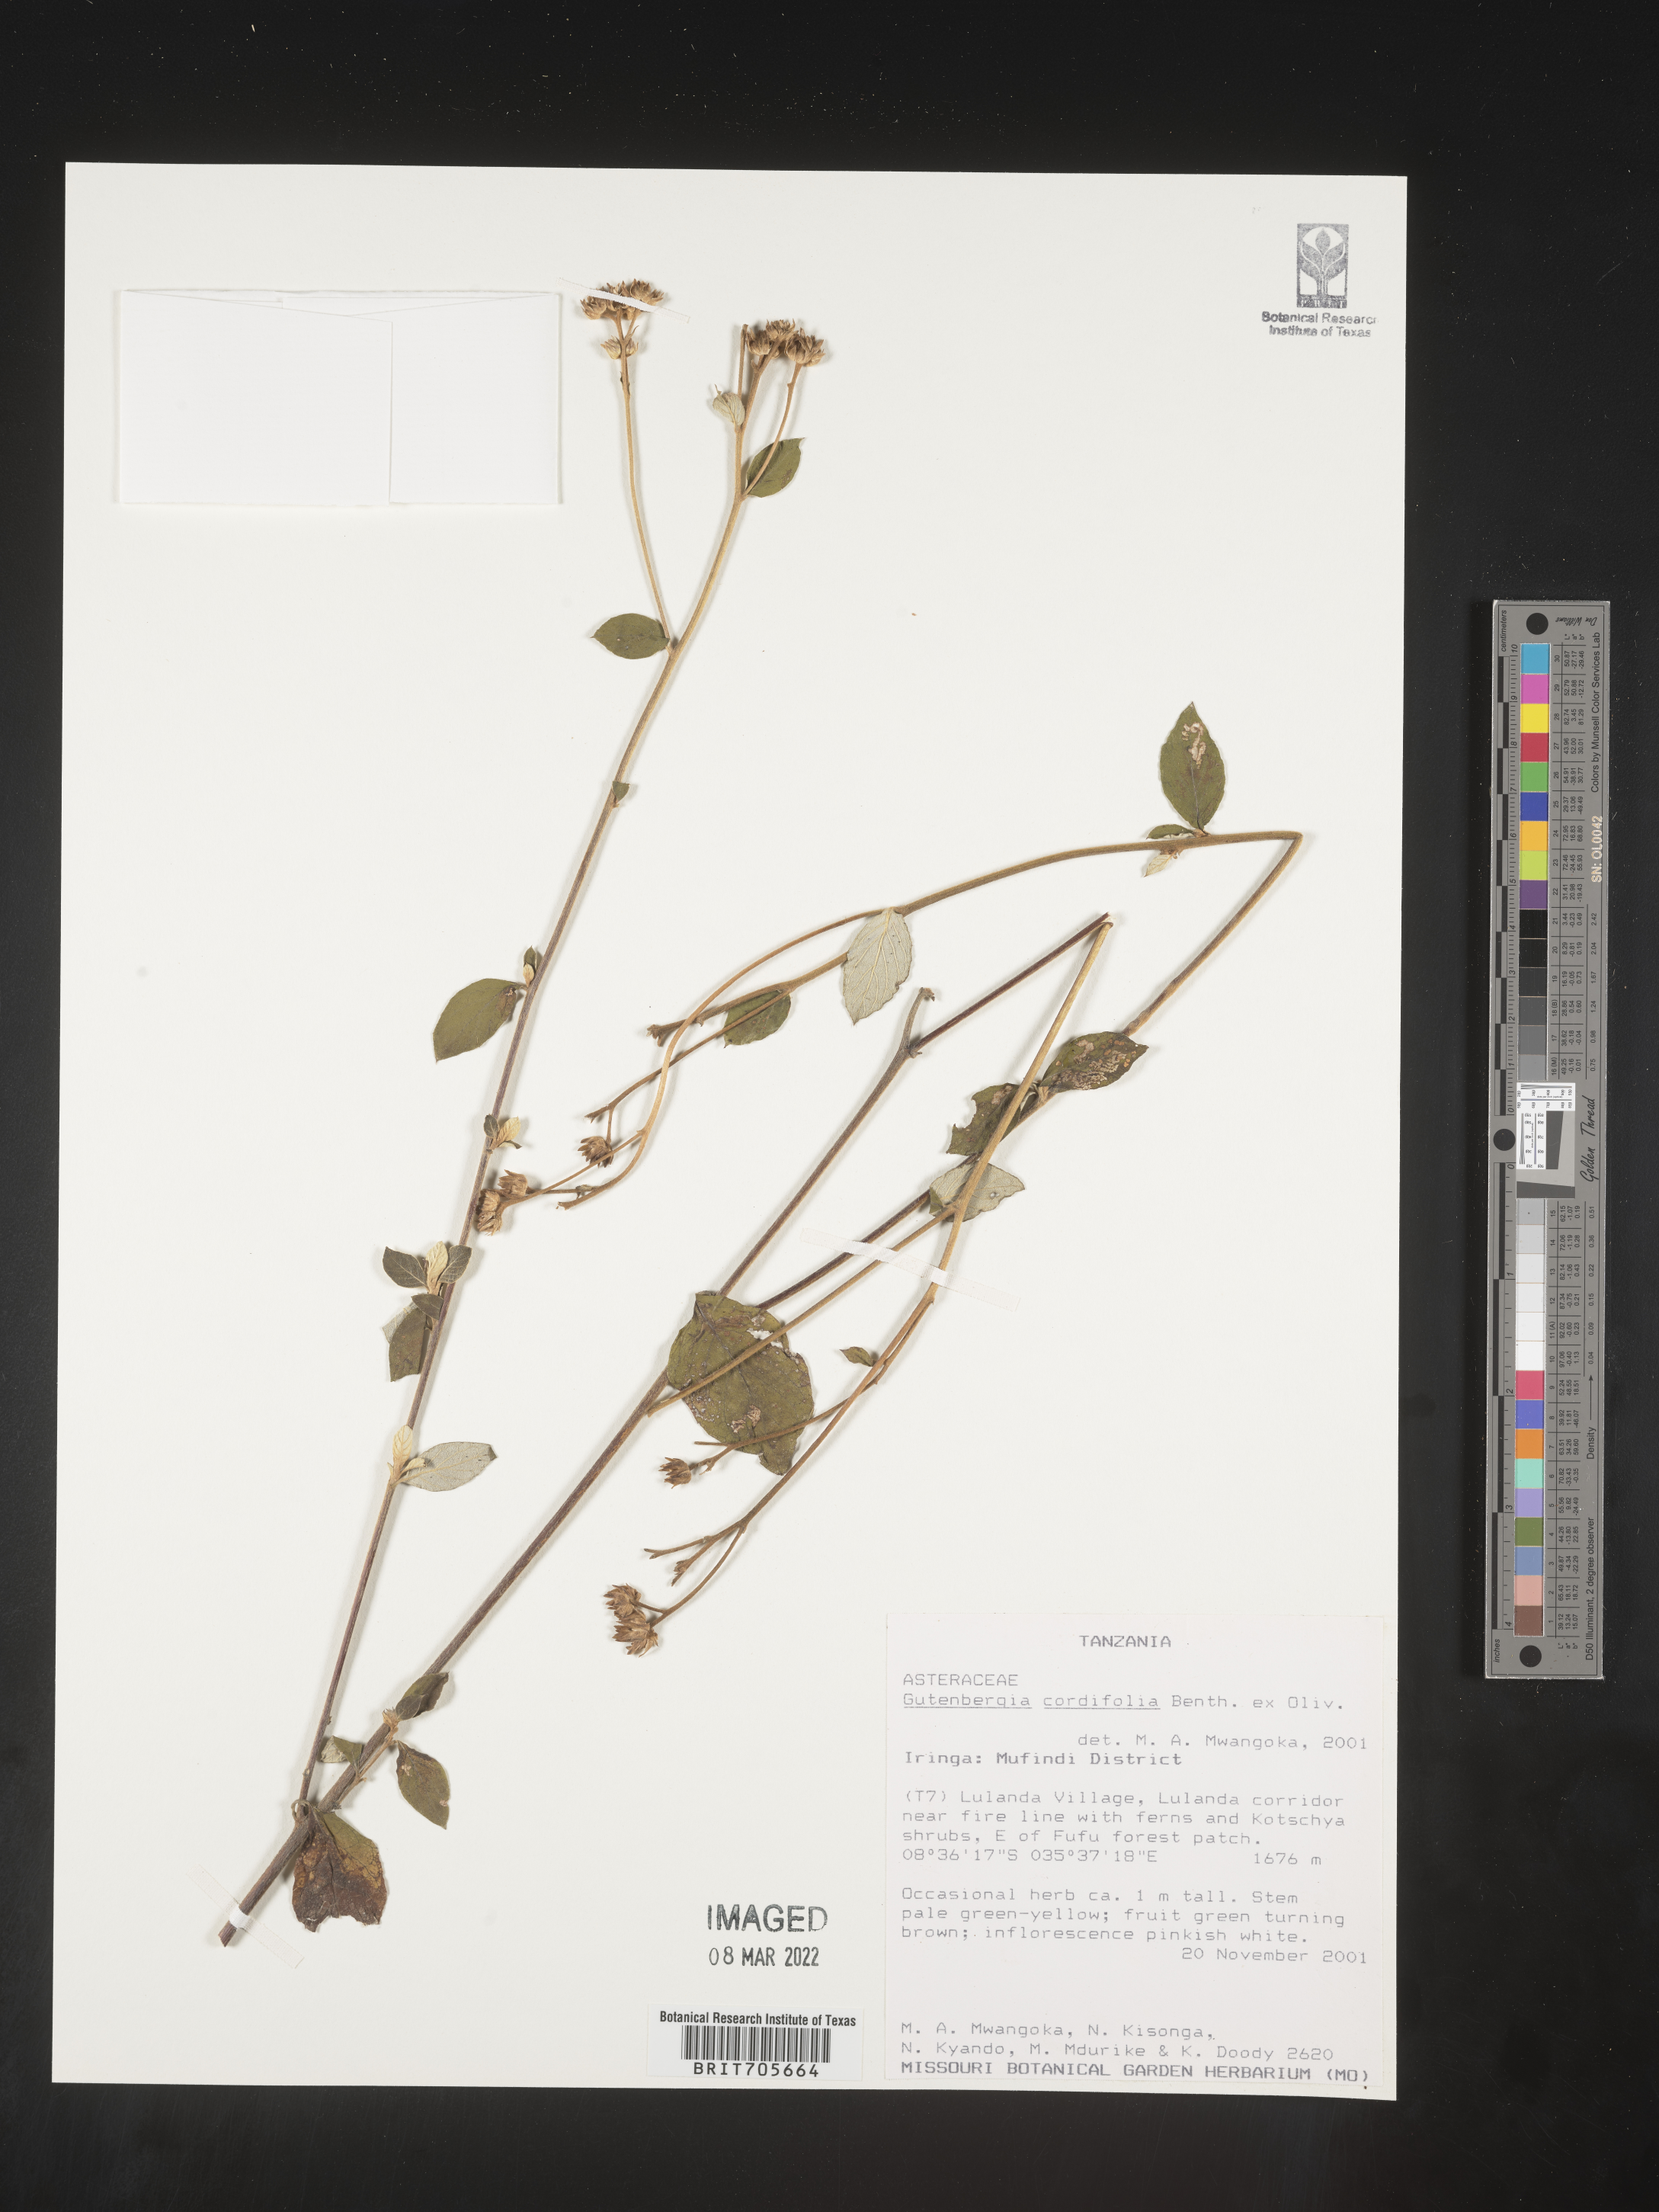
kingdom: Plantae
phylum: Tracheophyta
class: Magnoliopsida
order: Asterales
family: Asteraceae
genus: Gutenbergia
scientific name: Gutenbergia
